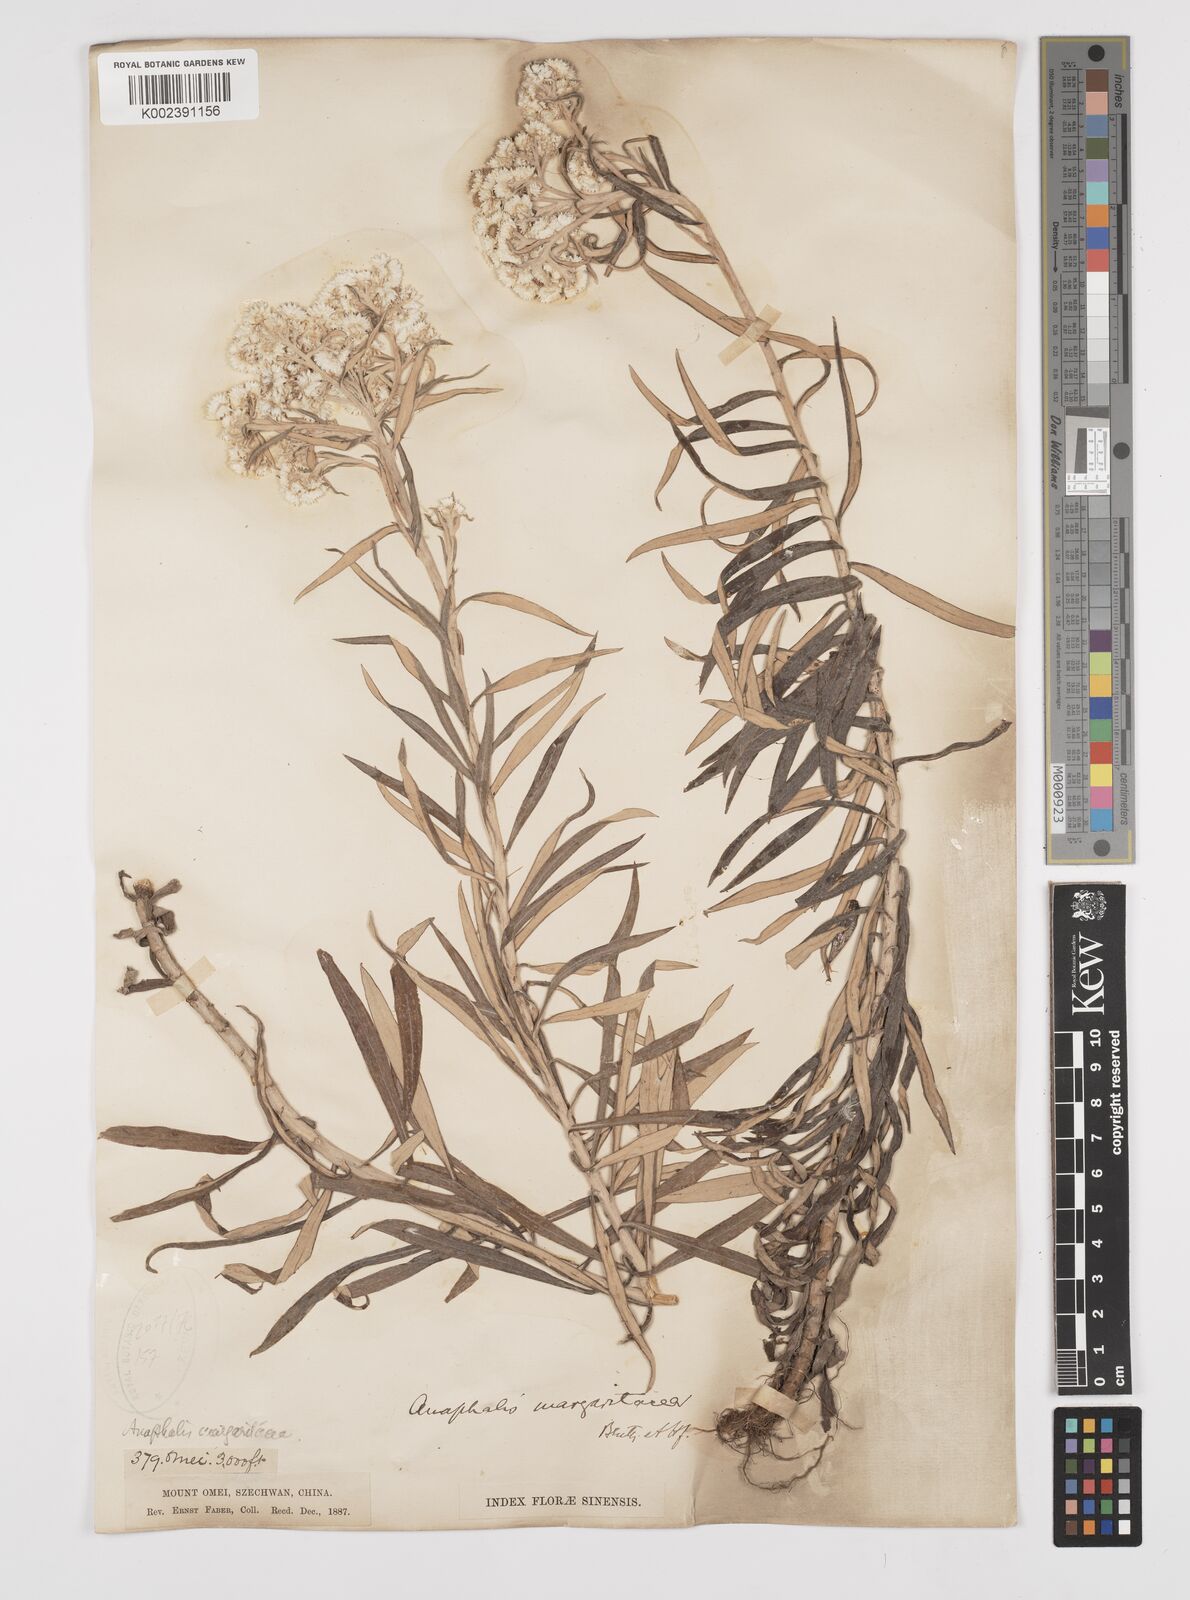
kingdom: Plantae
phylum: Tracheophyta
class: Magnoliopsida
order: Asterales
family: Asteraceae
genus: Anaphalis
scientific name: Anaphalis margaritacea
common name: Pearly everlasting
